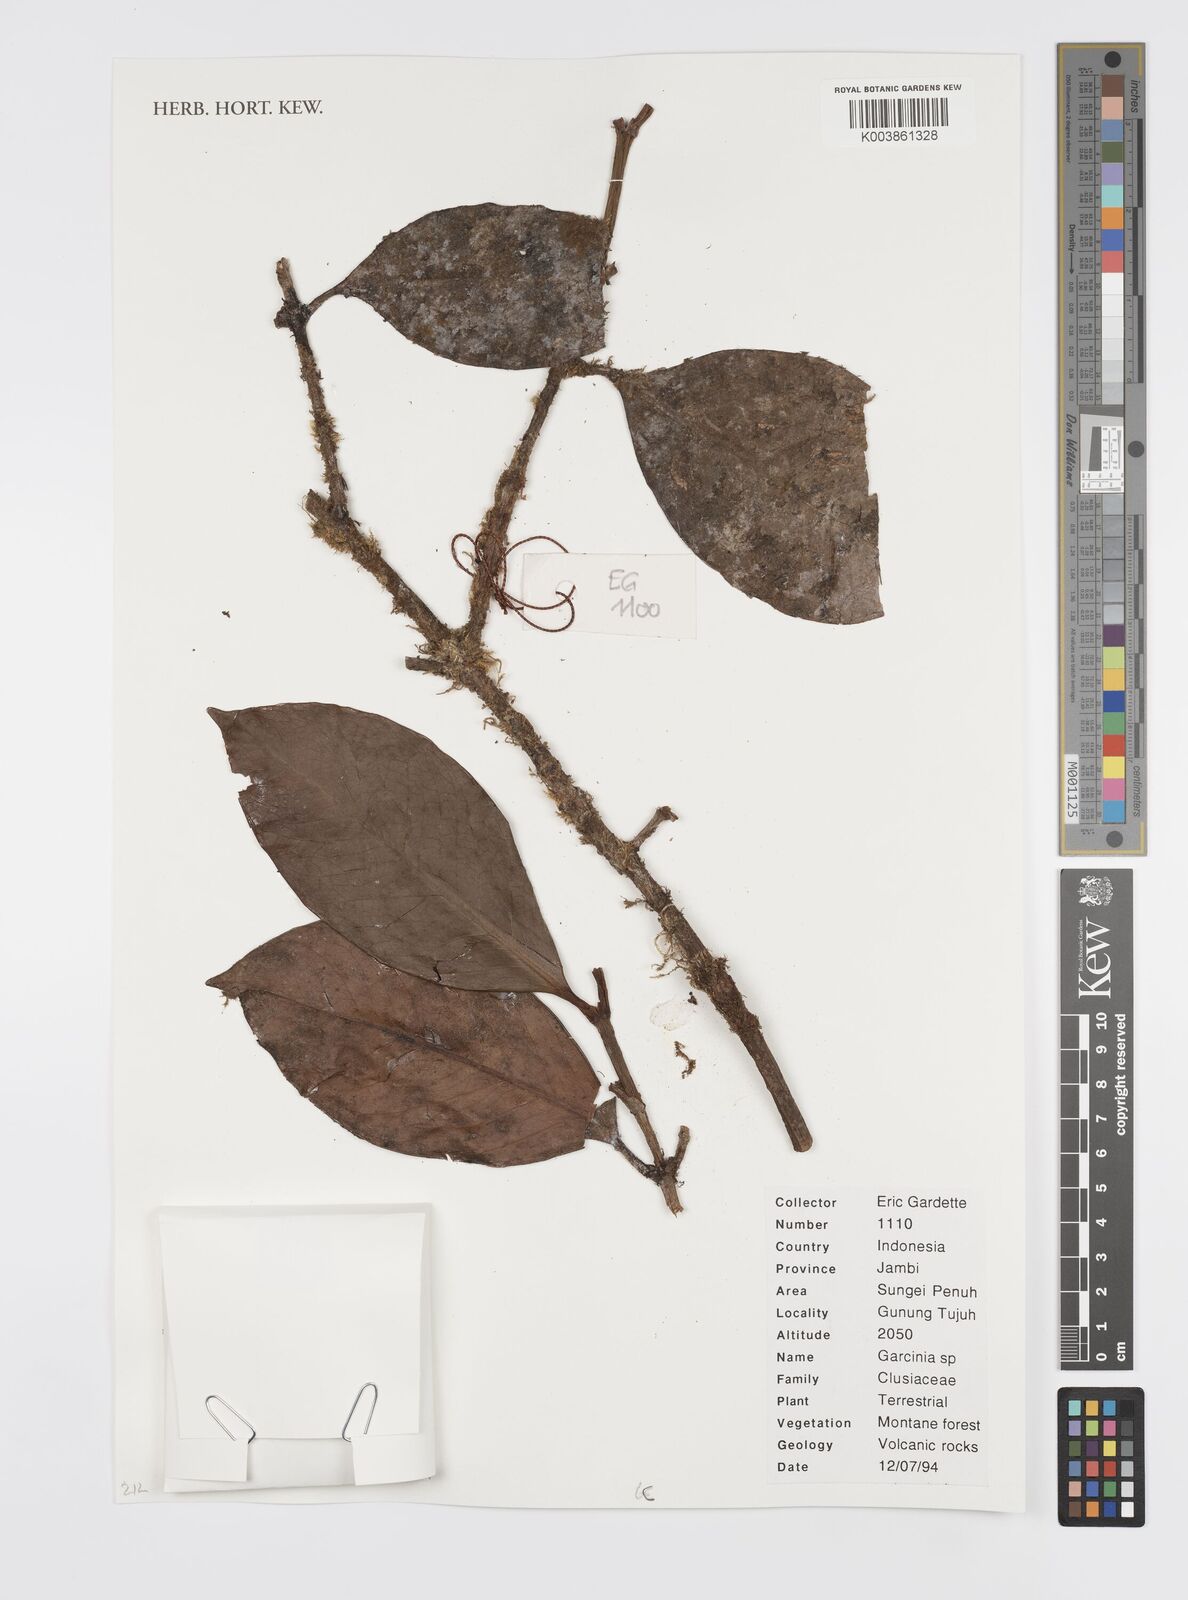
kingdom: Plantae
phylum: Tracheophyta
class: Magnoliopsida
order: Malpighiales
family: Clusiaceae
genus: Garcinia
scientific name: Garcinia
